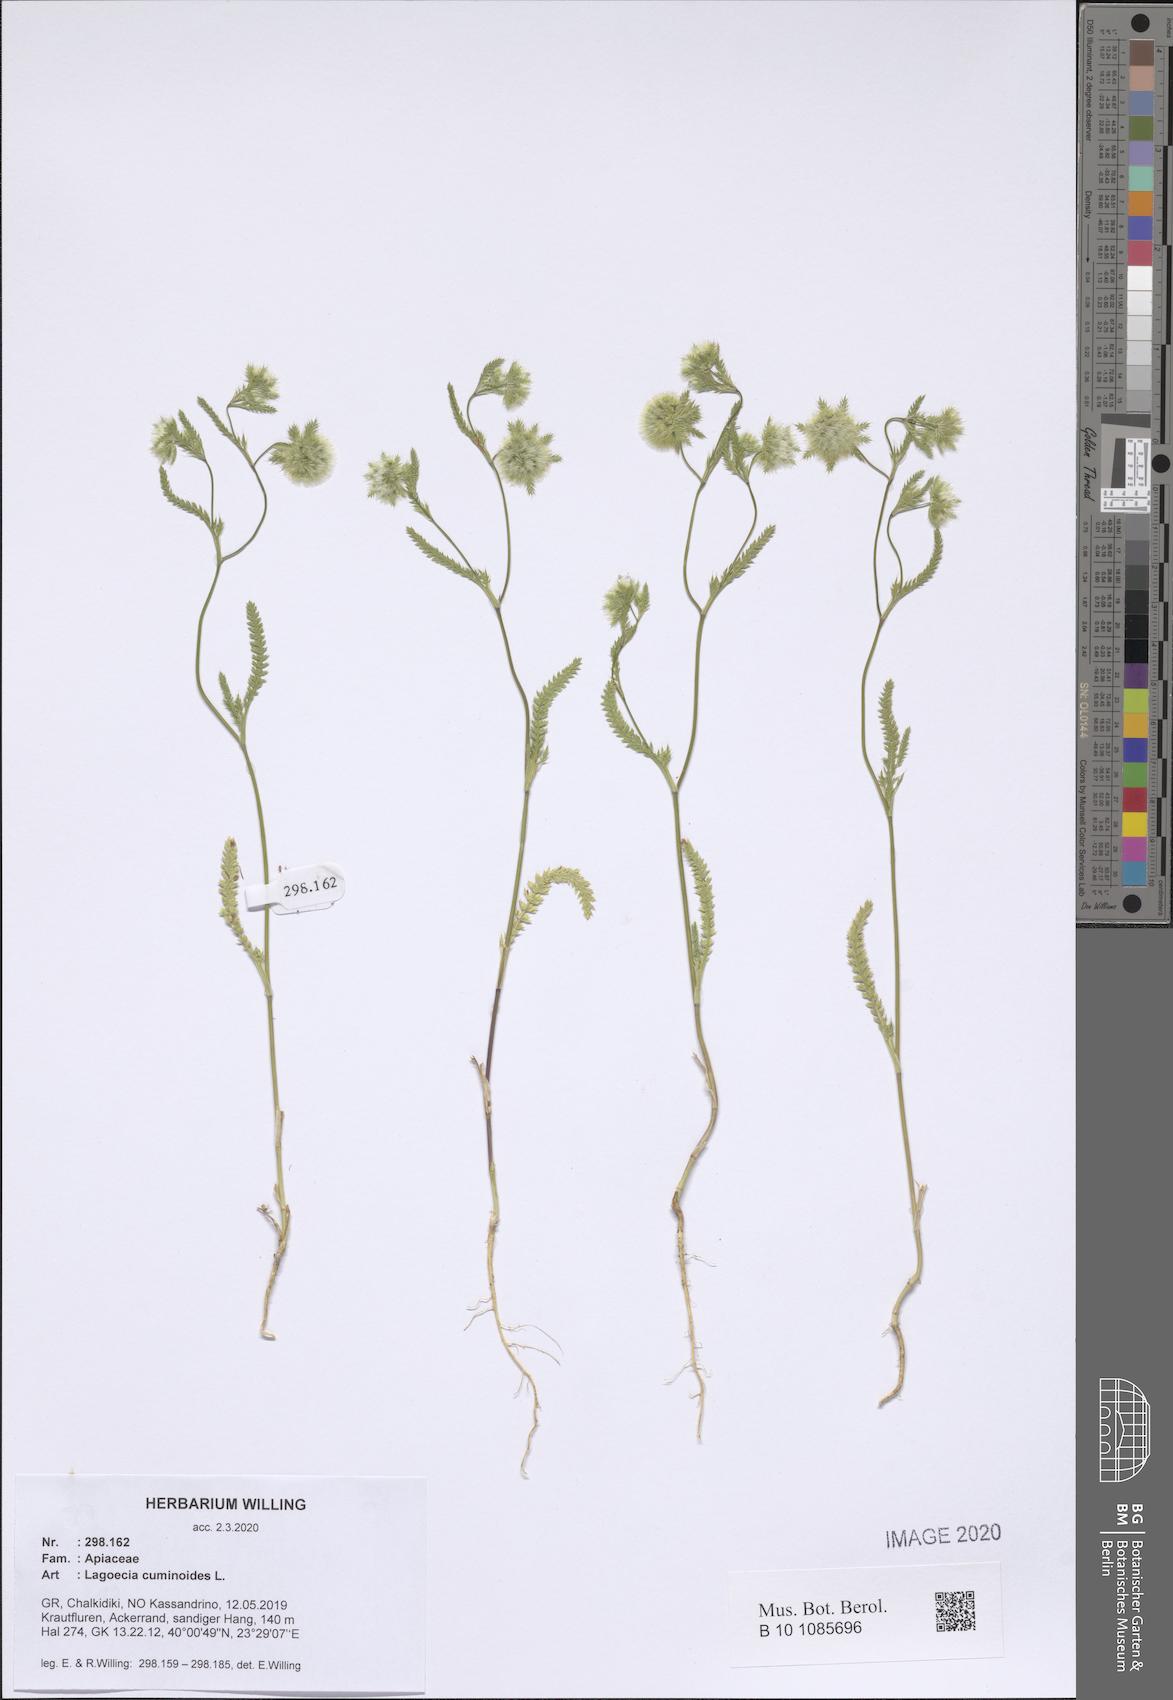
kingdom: Plantae
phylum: Tracheophyta
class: Magnoliopsida
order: Apiales
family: Apiaceae
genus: Lagoecia
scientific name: Lagoecia cuminoides
